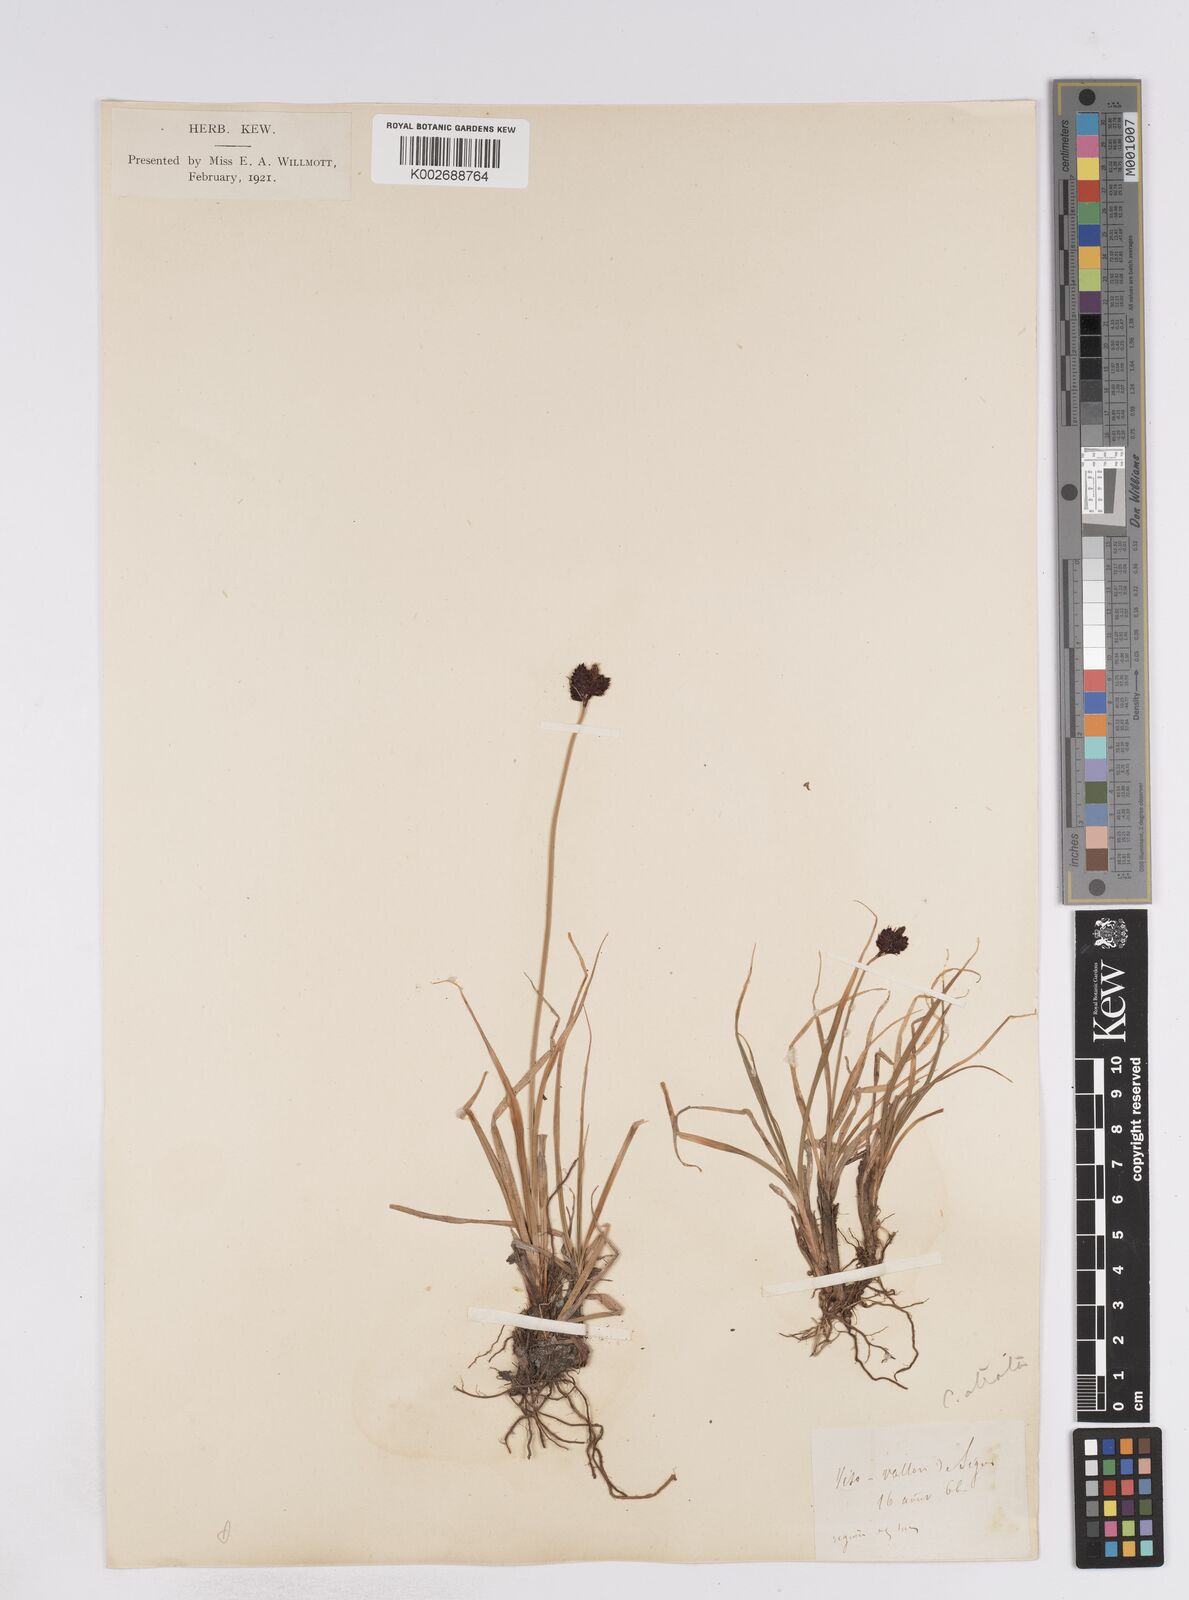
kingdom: Plantae
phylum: Tracheophyta
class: Liliopsida
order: Poales
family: Cyperaceae
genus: Carex
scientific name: Carex parviflora
